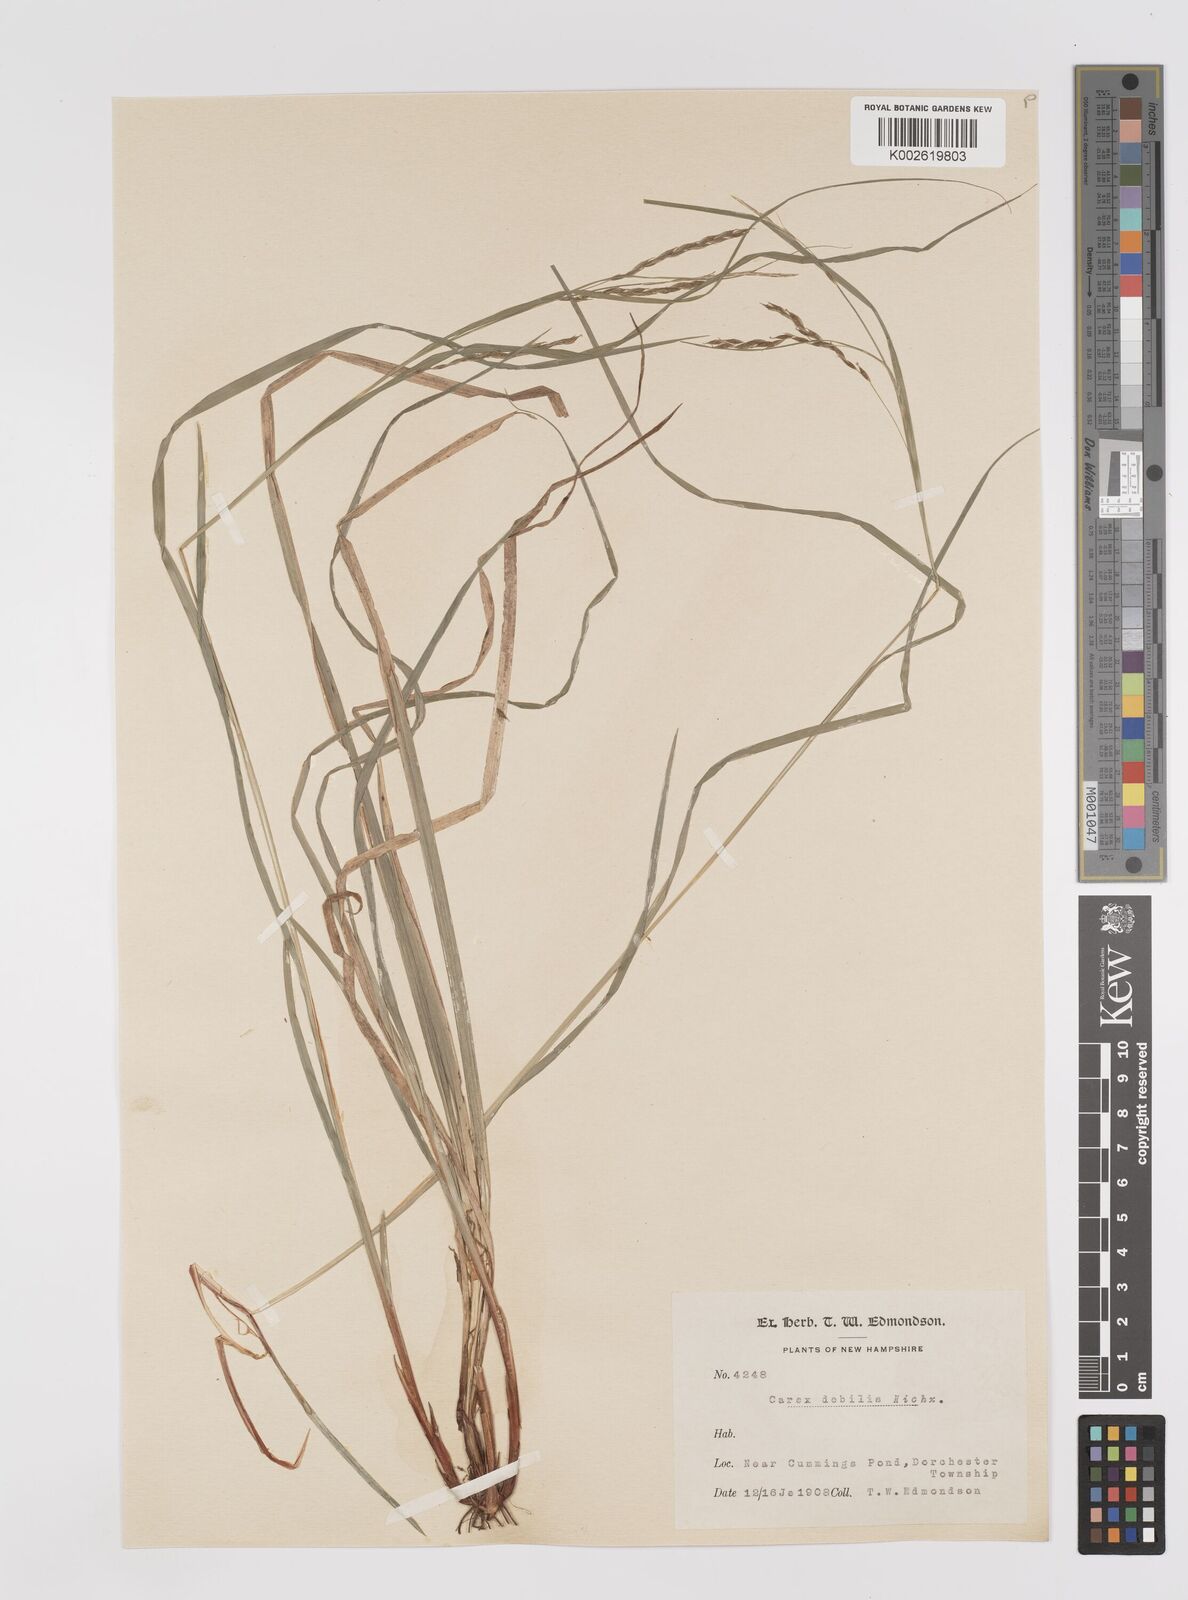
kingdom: Plantae
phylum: Tracheophyta
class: Liliopsida
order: Poales
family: Cyperaceae
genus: Carex
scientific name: Carex debilis
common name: White-edge sedge
